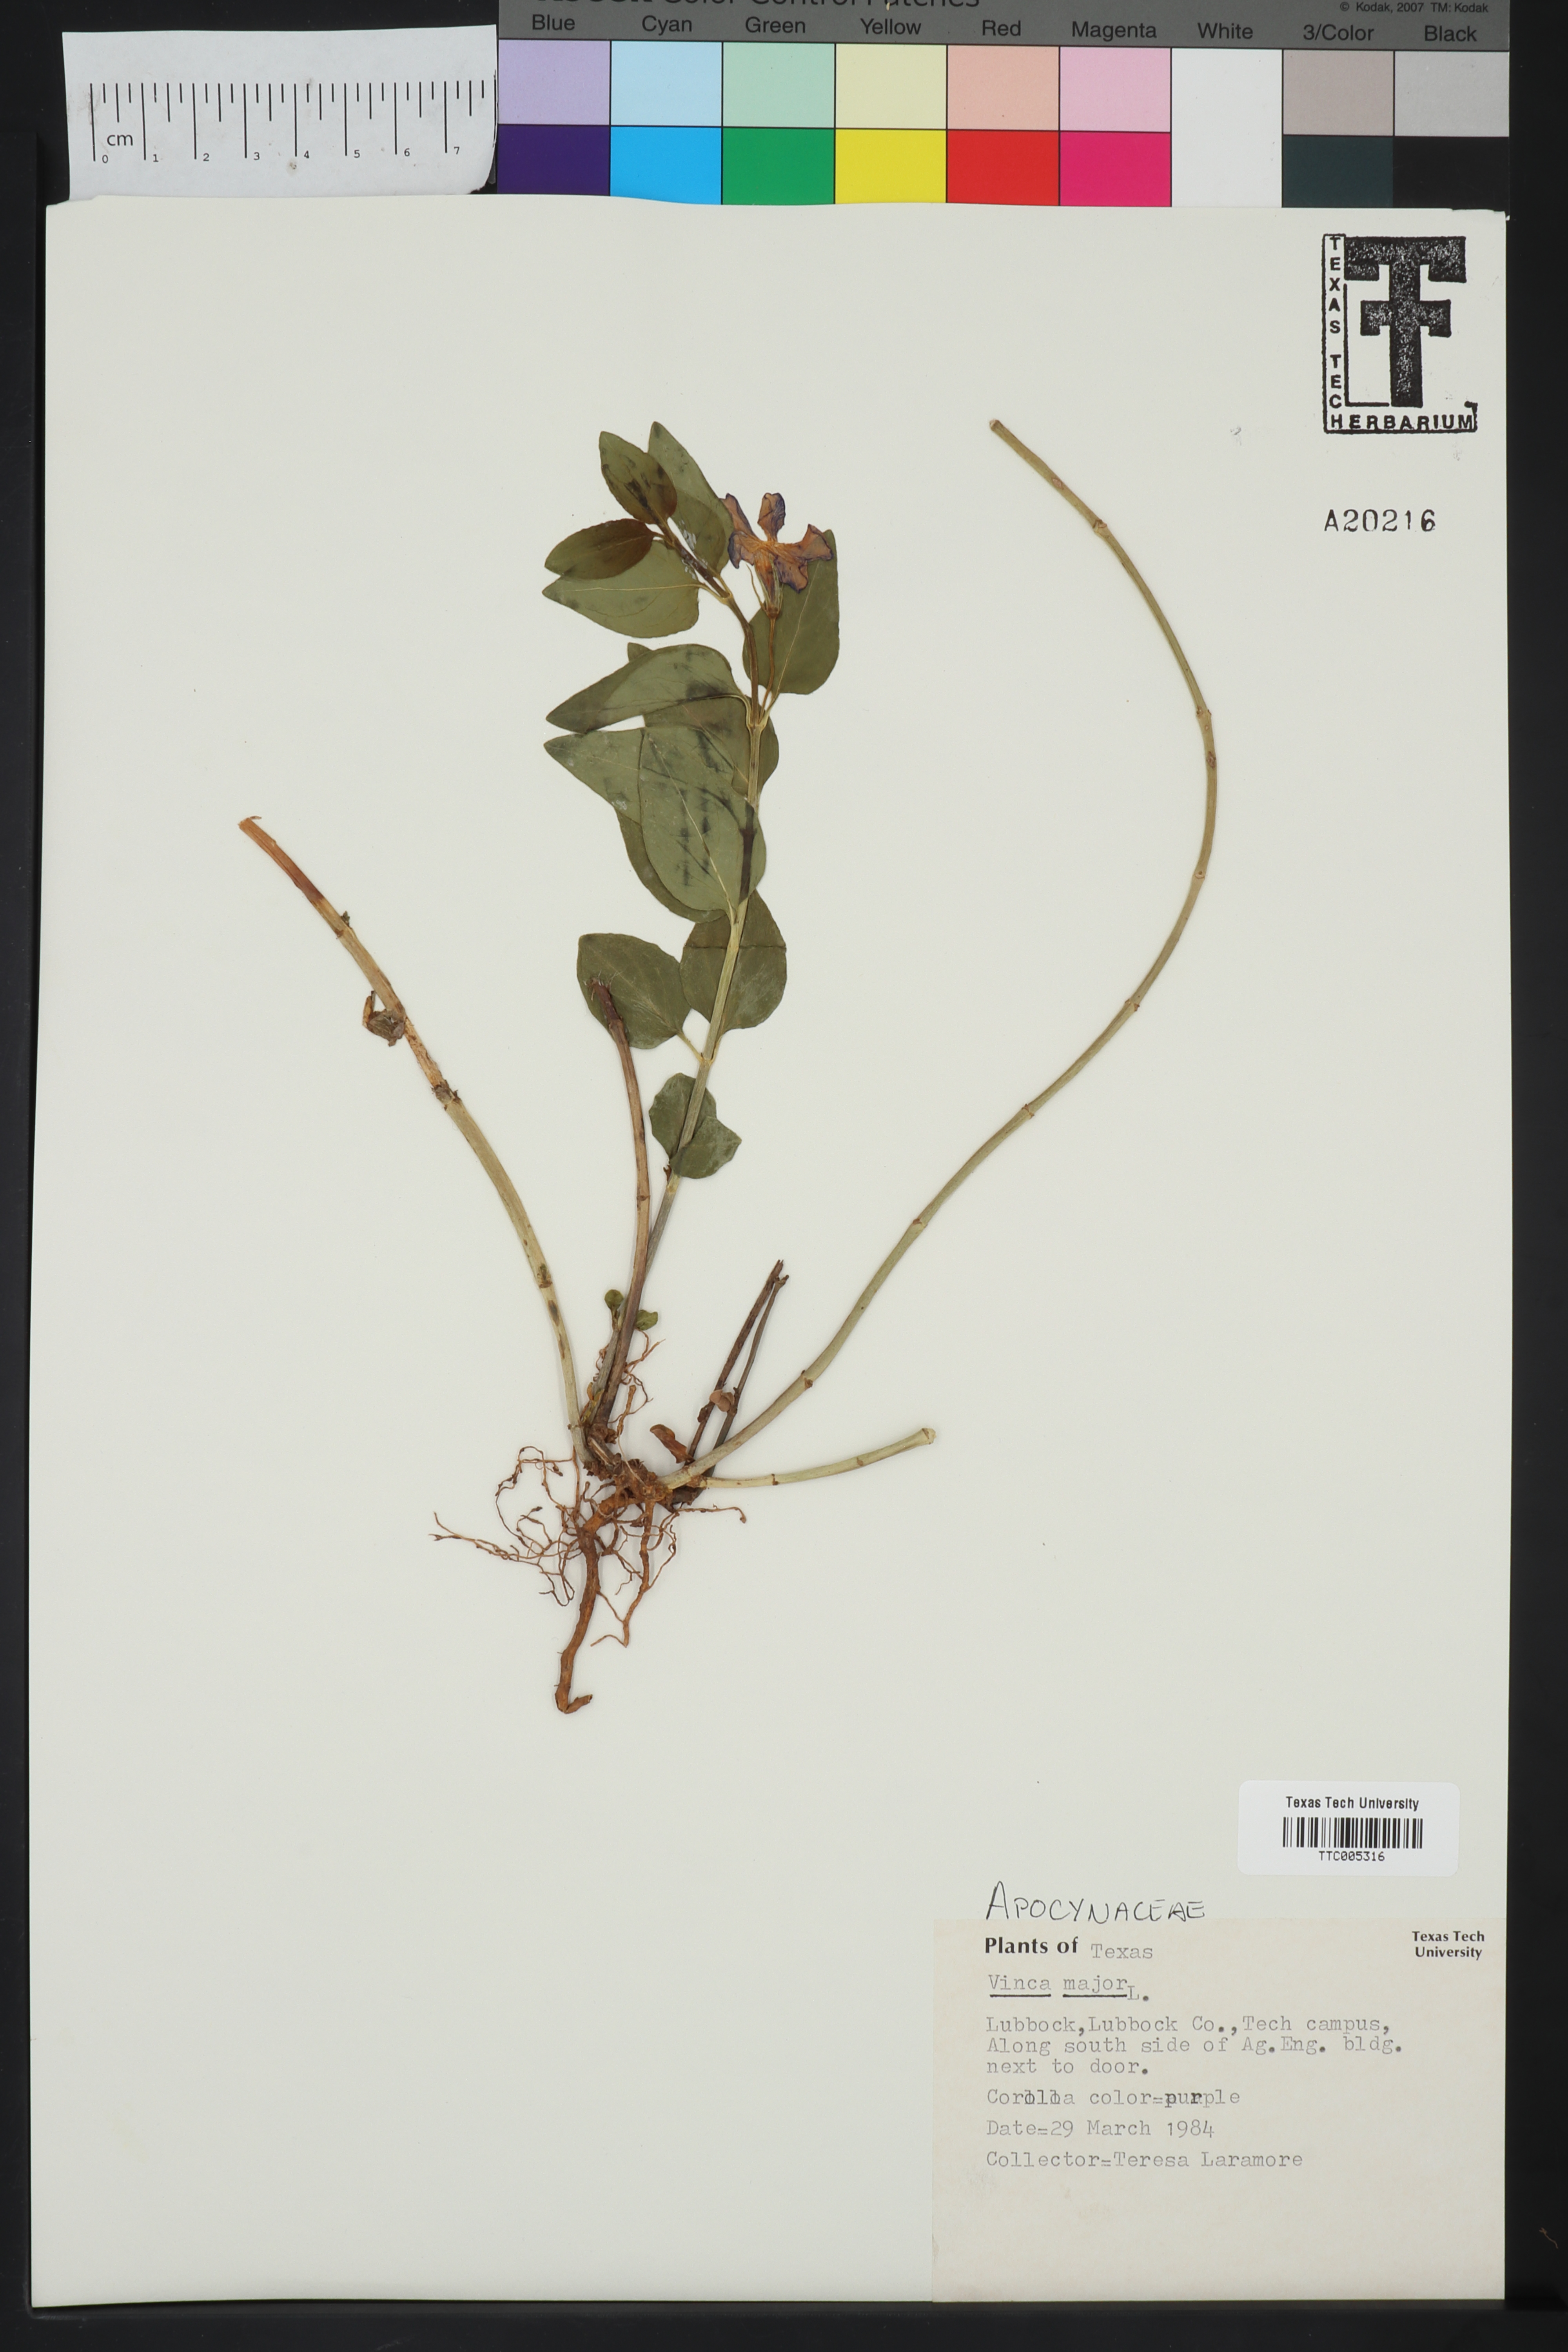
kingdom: Plantae
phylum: Tracheophyta
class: Magnoliopsida
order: Gentianales
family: Apocynaceae
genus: Vinca
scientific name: Vinca major
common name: Greater periwinkle
